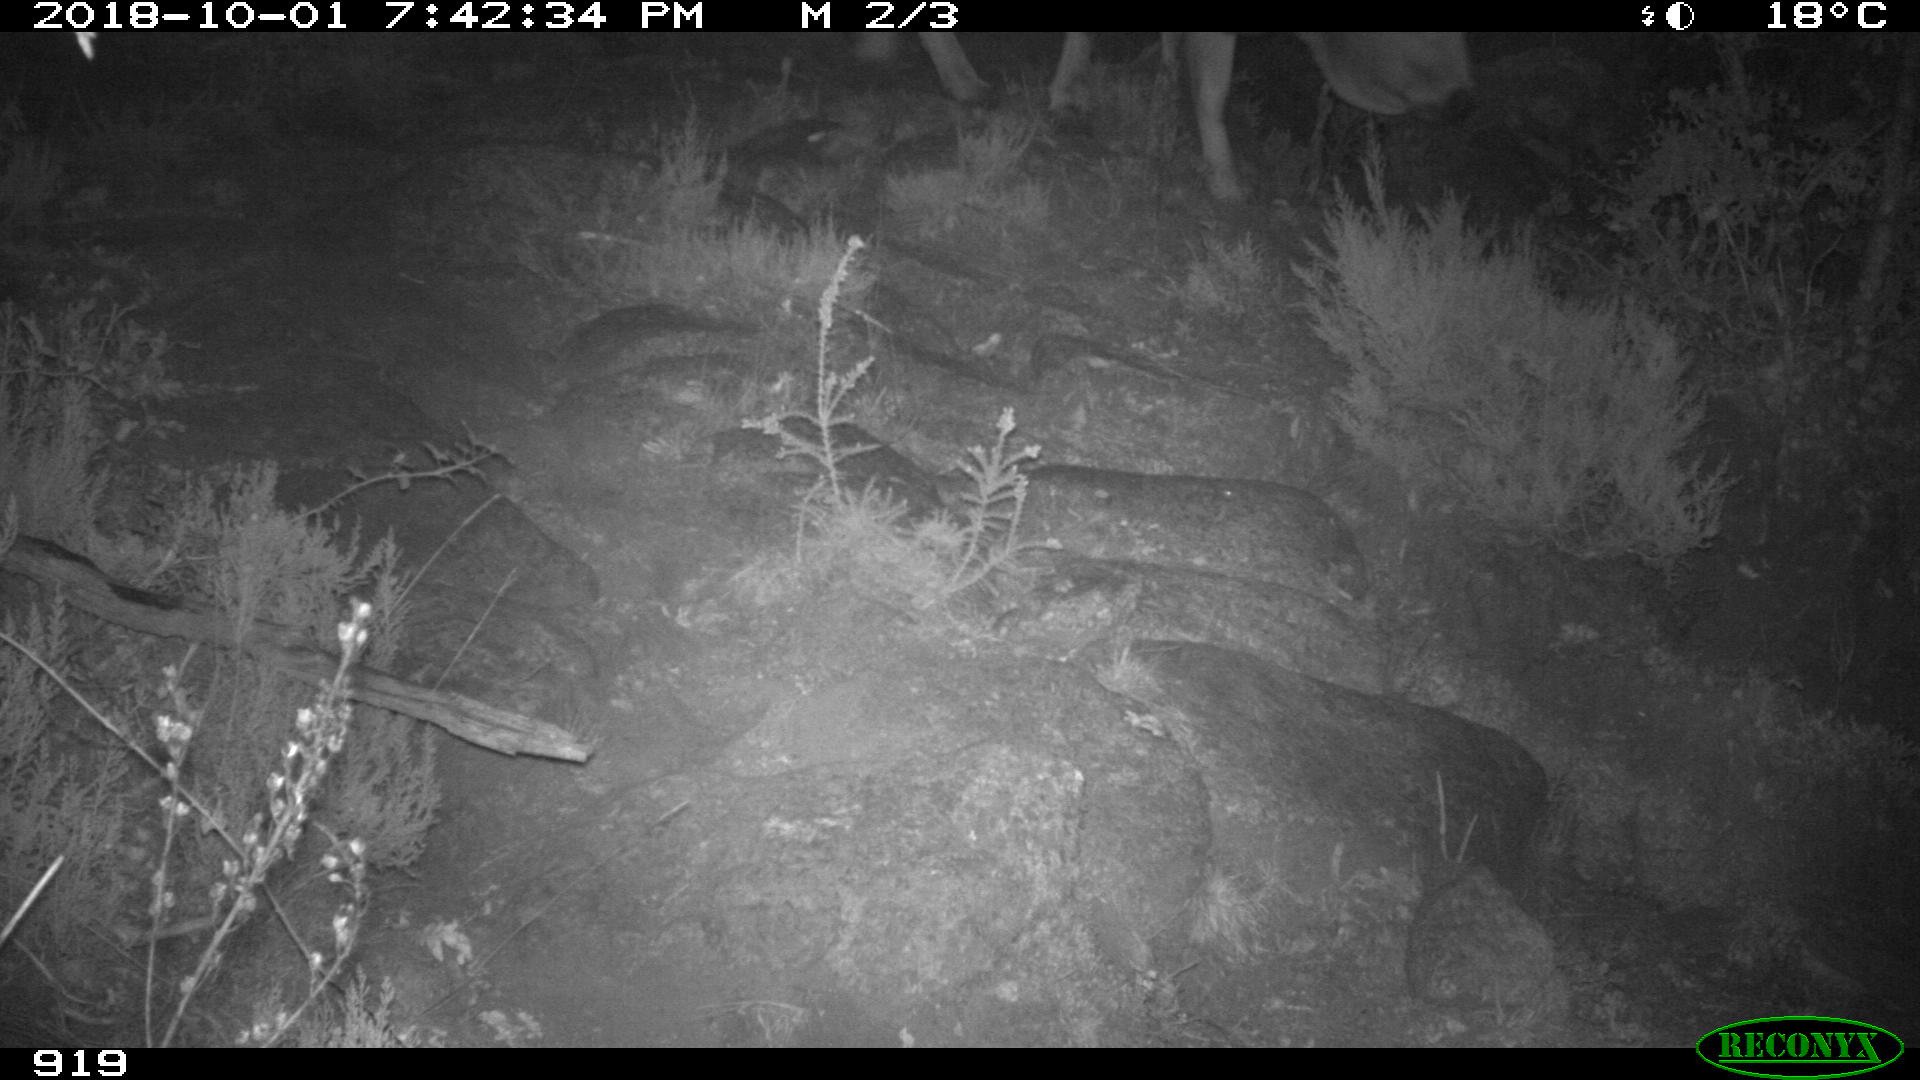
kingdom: Animalia
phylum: Chordata
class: Mammalia
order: Artiodactyla
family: Bovidae
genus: Bos
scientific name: Bos taurus
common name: Domesticated cattle
